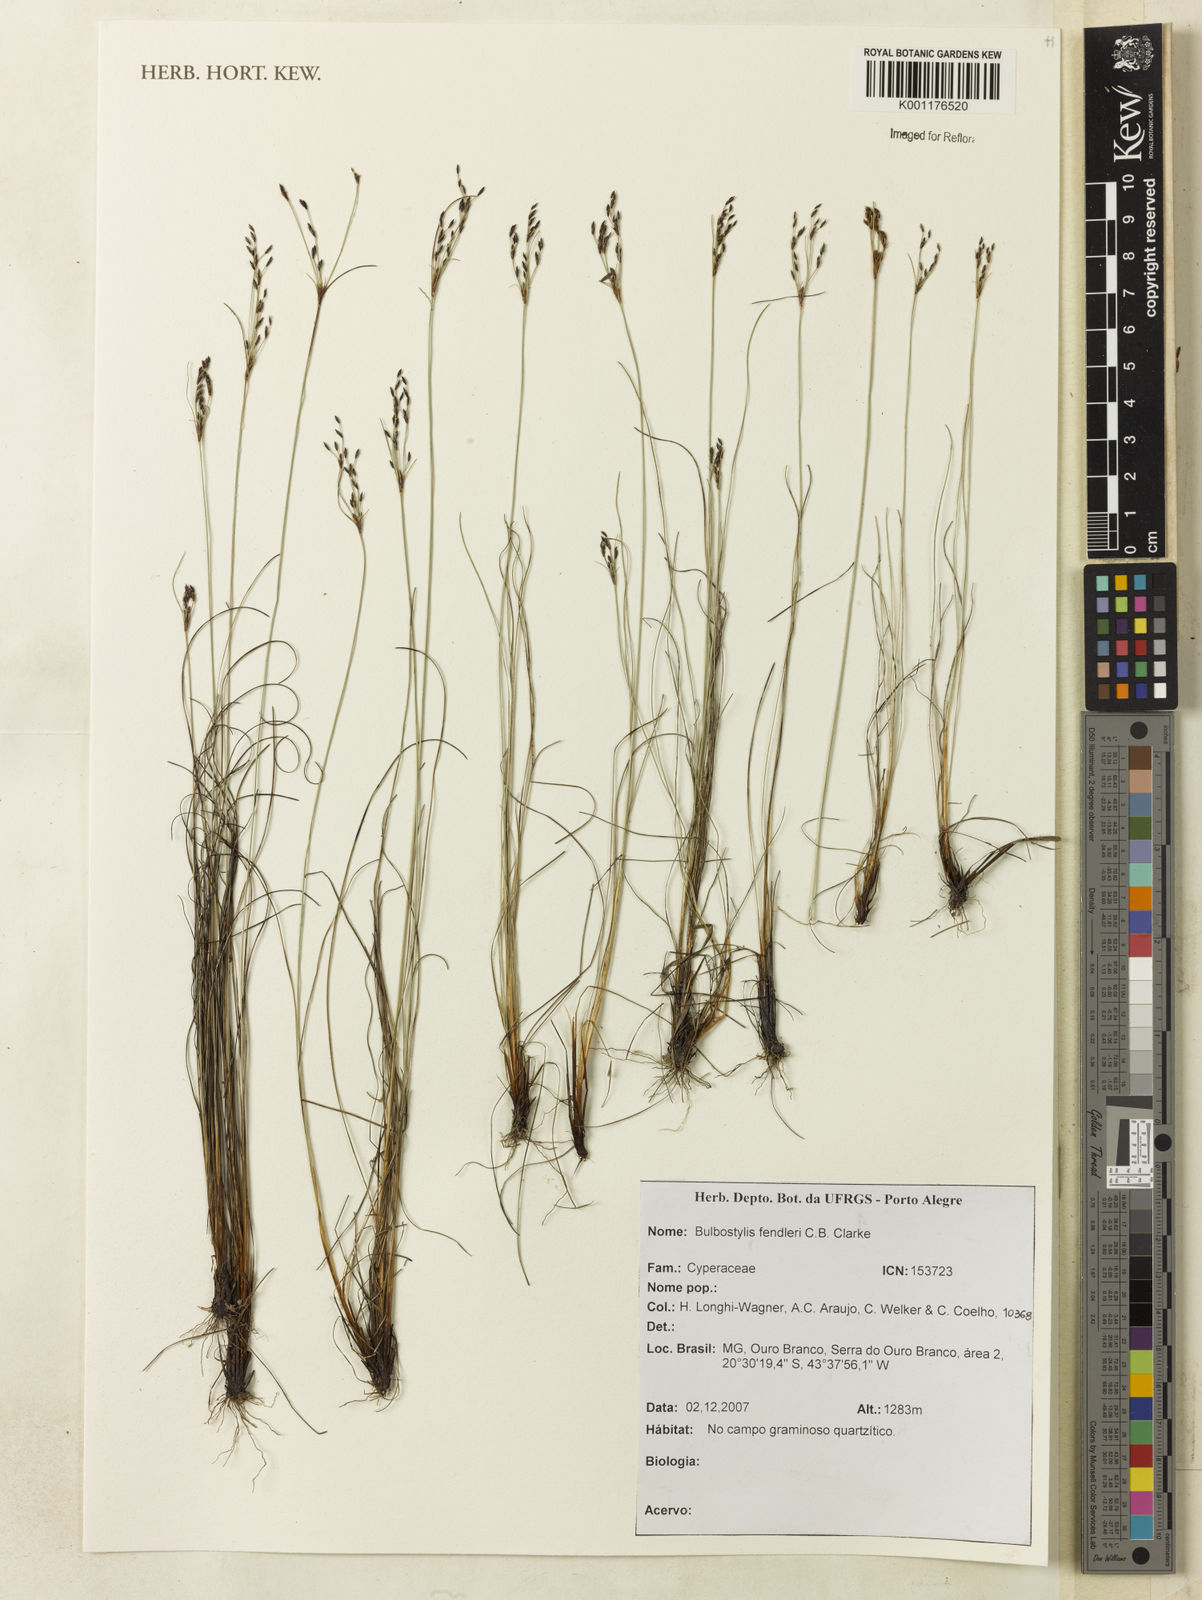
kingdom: Plantae
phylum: Tracheophyta
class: Liliopsida
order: Poales
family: Cyperaceae
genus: Bulbostylis
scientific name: Bulbostylis juncoides
